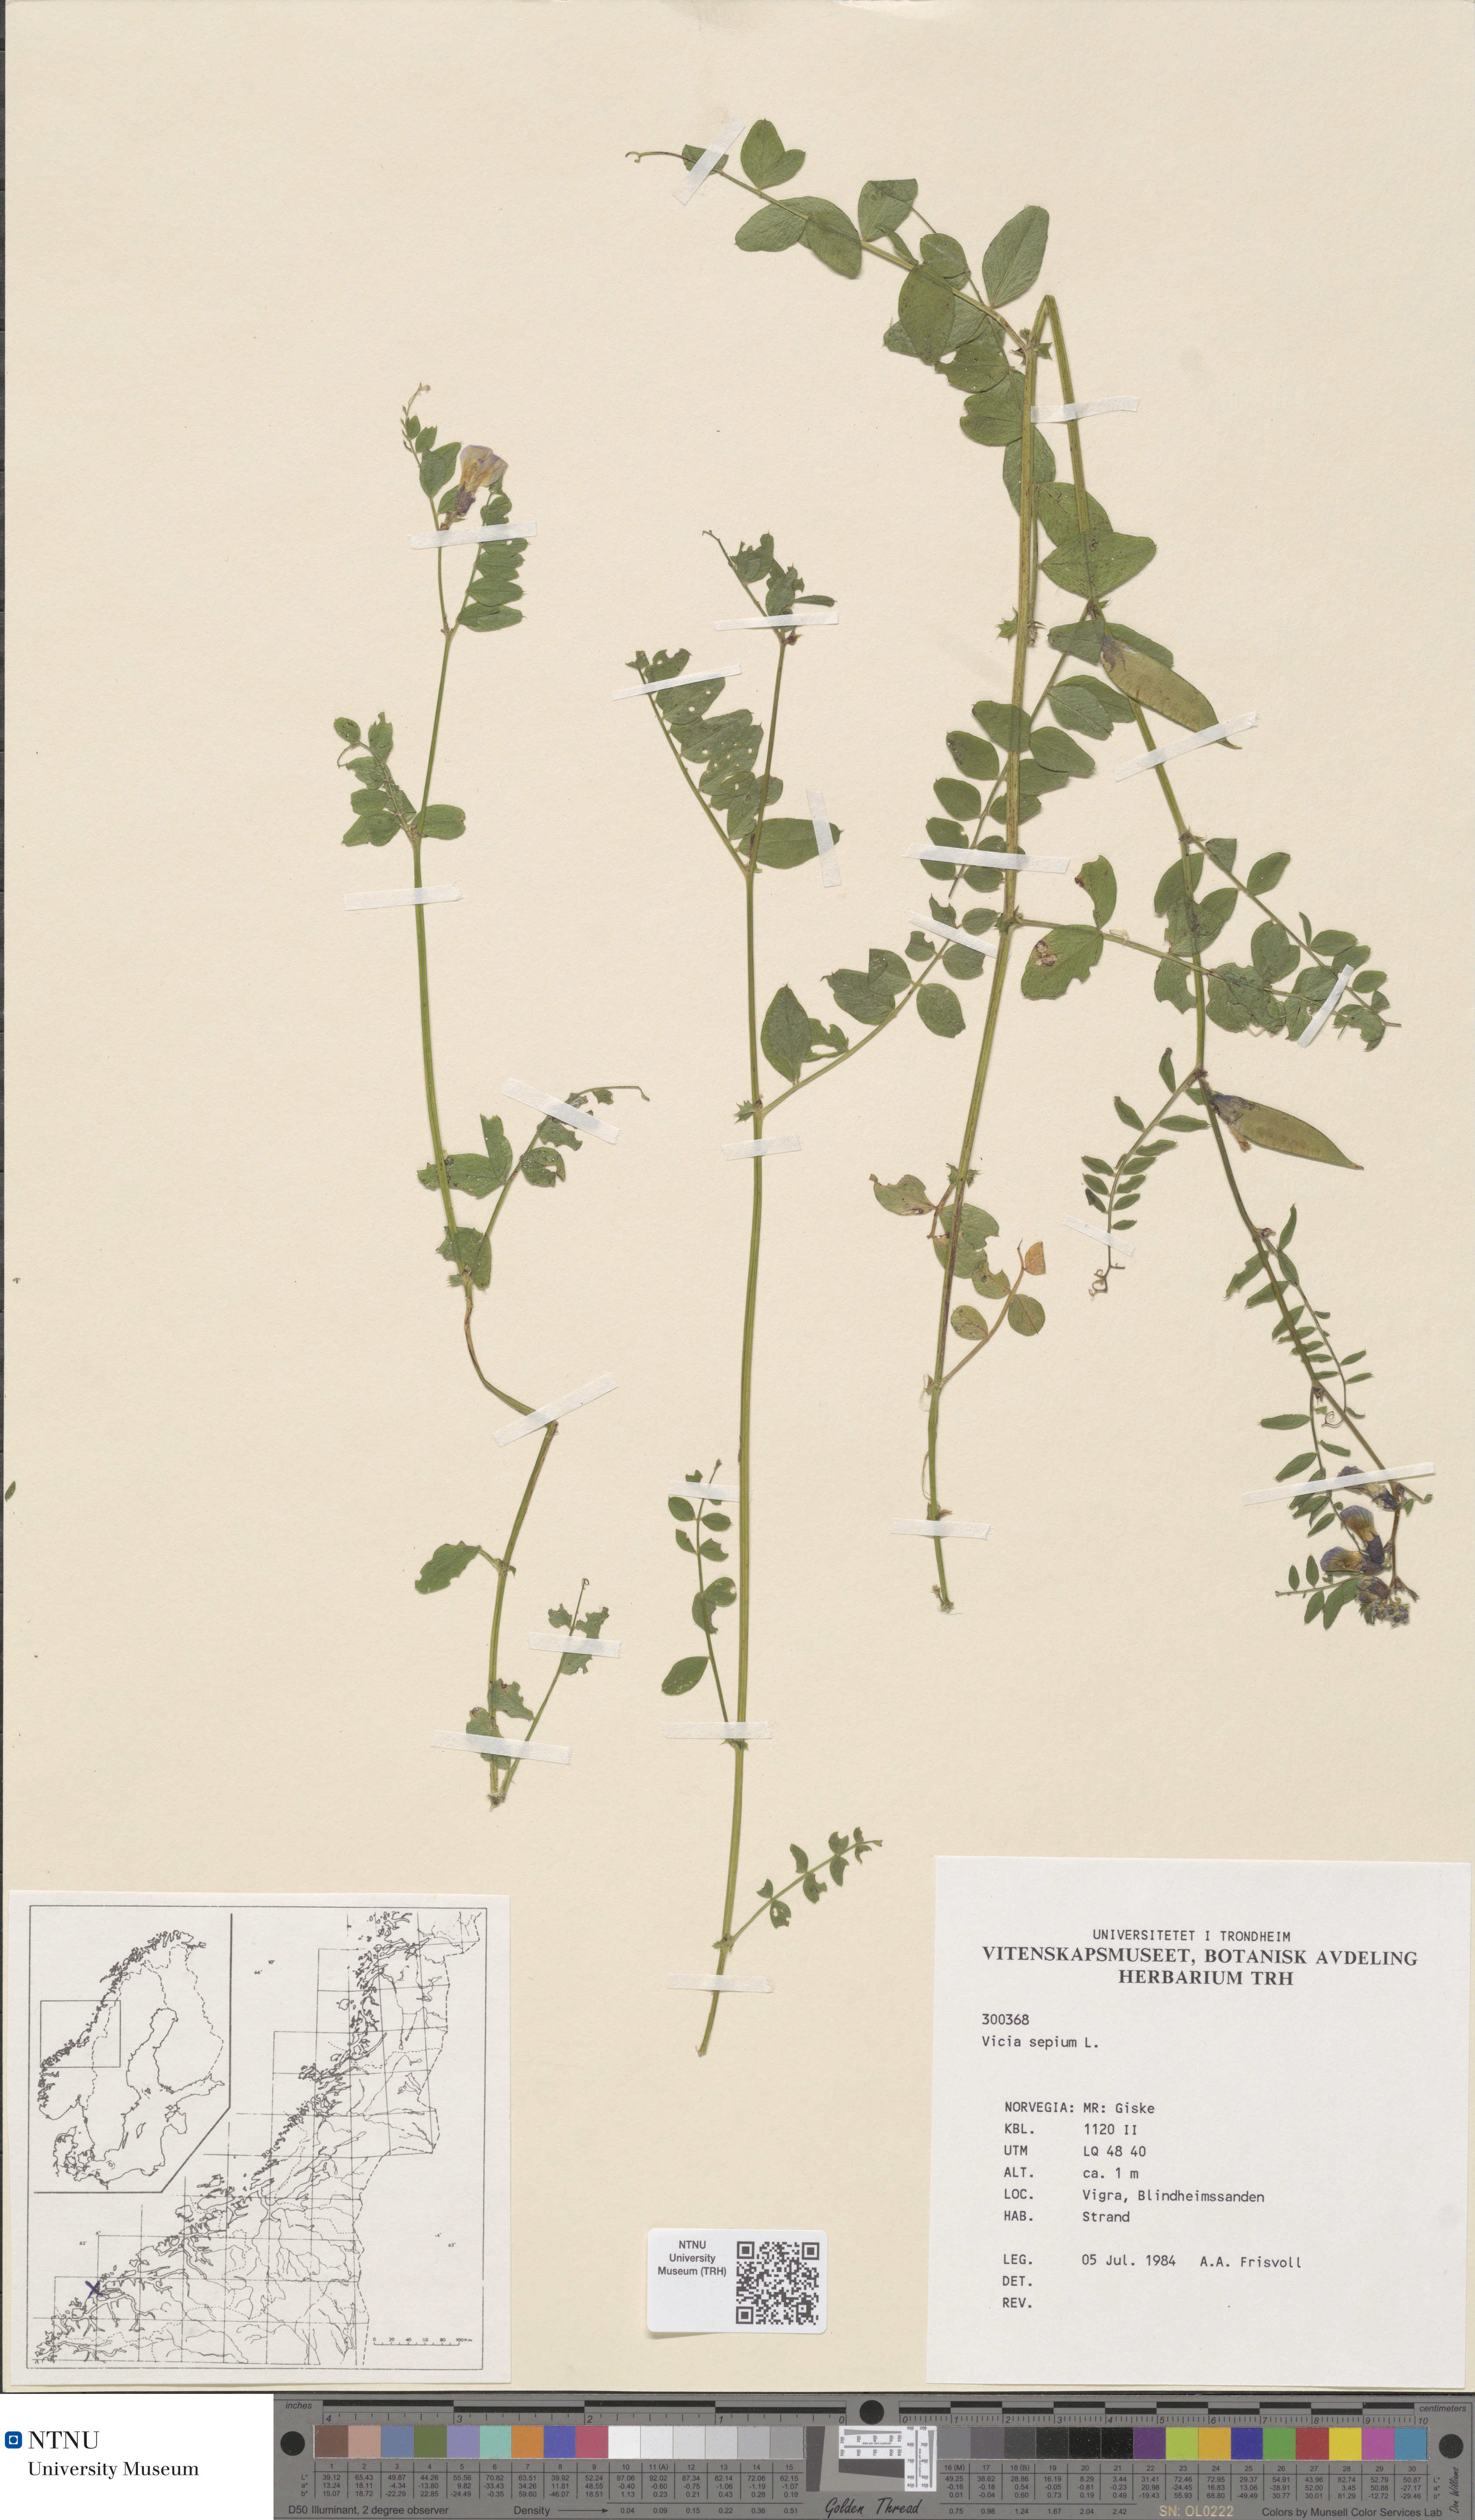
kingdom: Plantae
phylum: Tracheophyta
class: Magnoliopsida
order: Fabales
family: Fabaceae
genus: Vicia
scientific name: Vicia sepium
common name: Bush vetch
